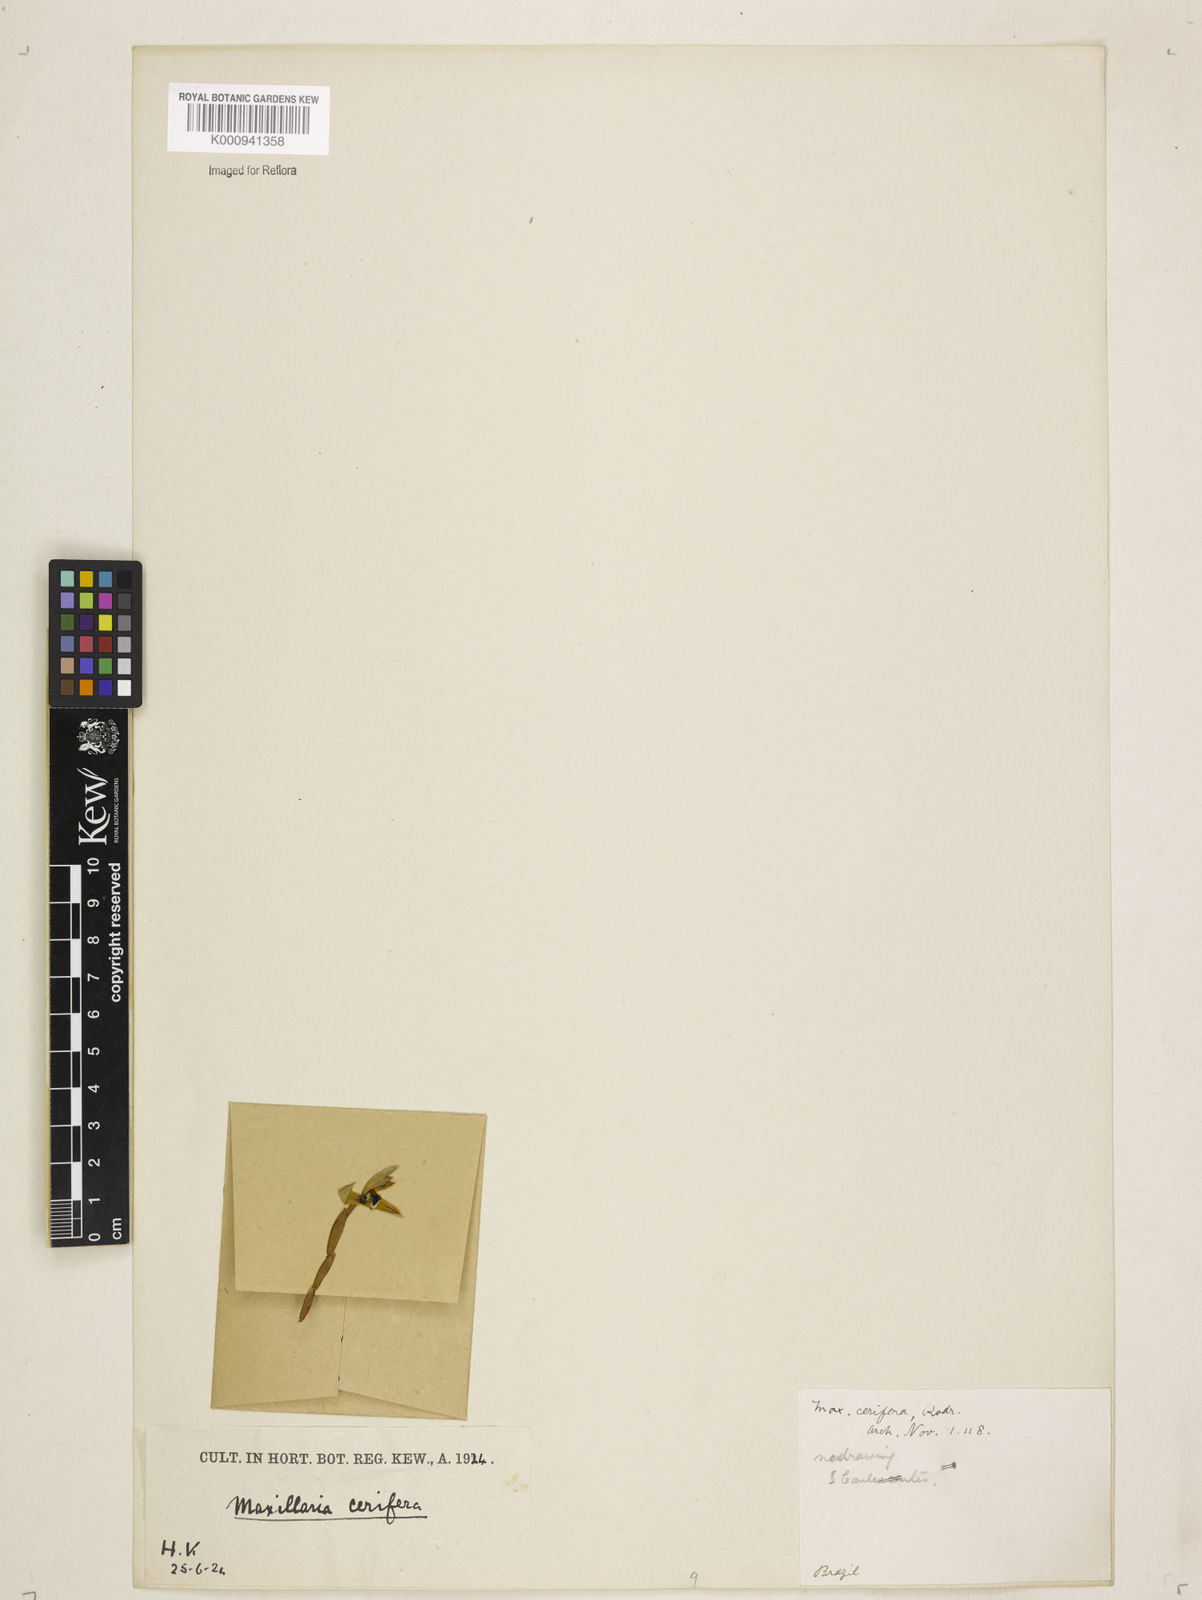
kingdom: Plantae
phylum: Tracheophyta
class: Liliopsida
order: Asparagales
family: Orchidaceae
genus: Maxillaria
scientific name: Maxillaria notylioglossa
